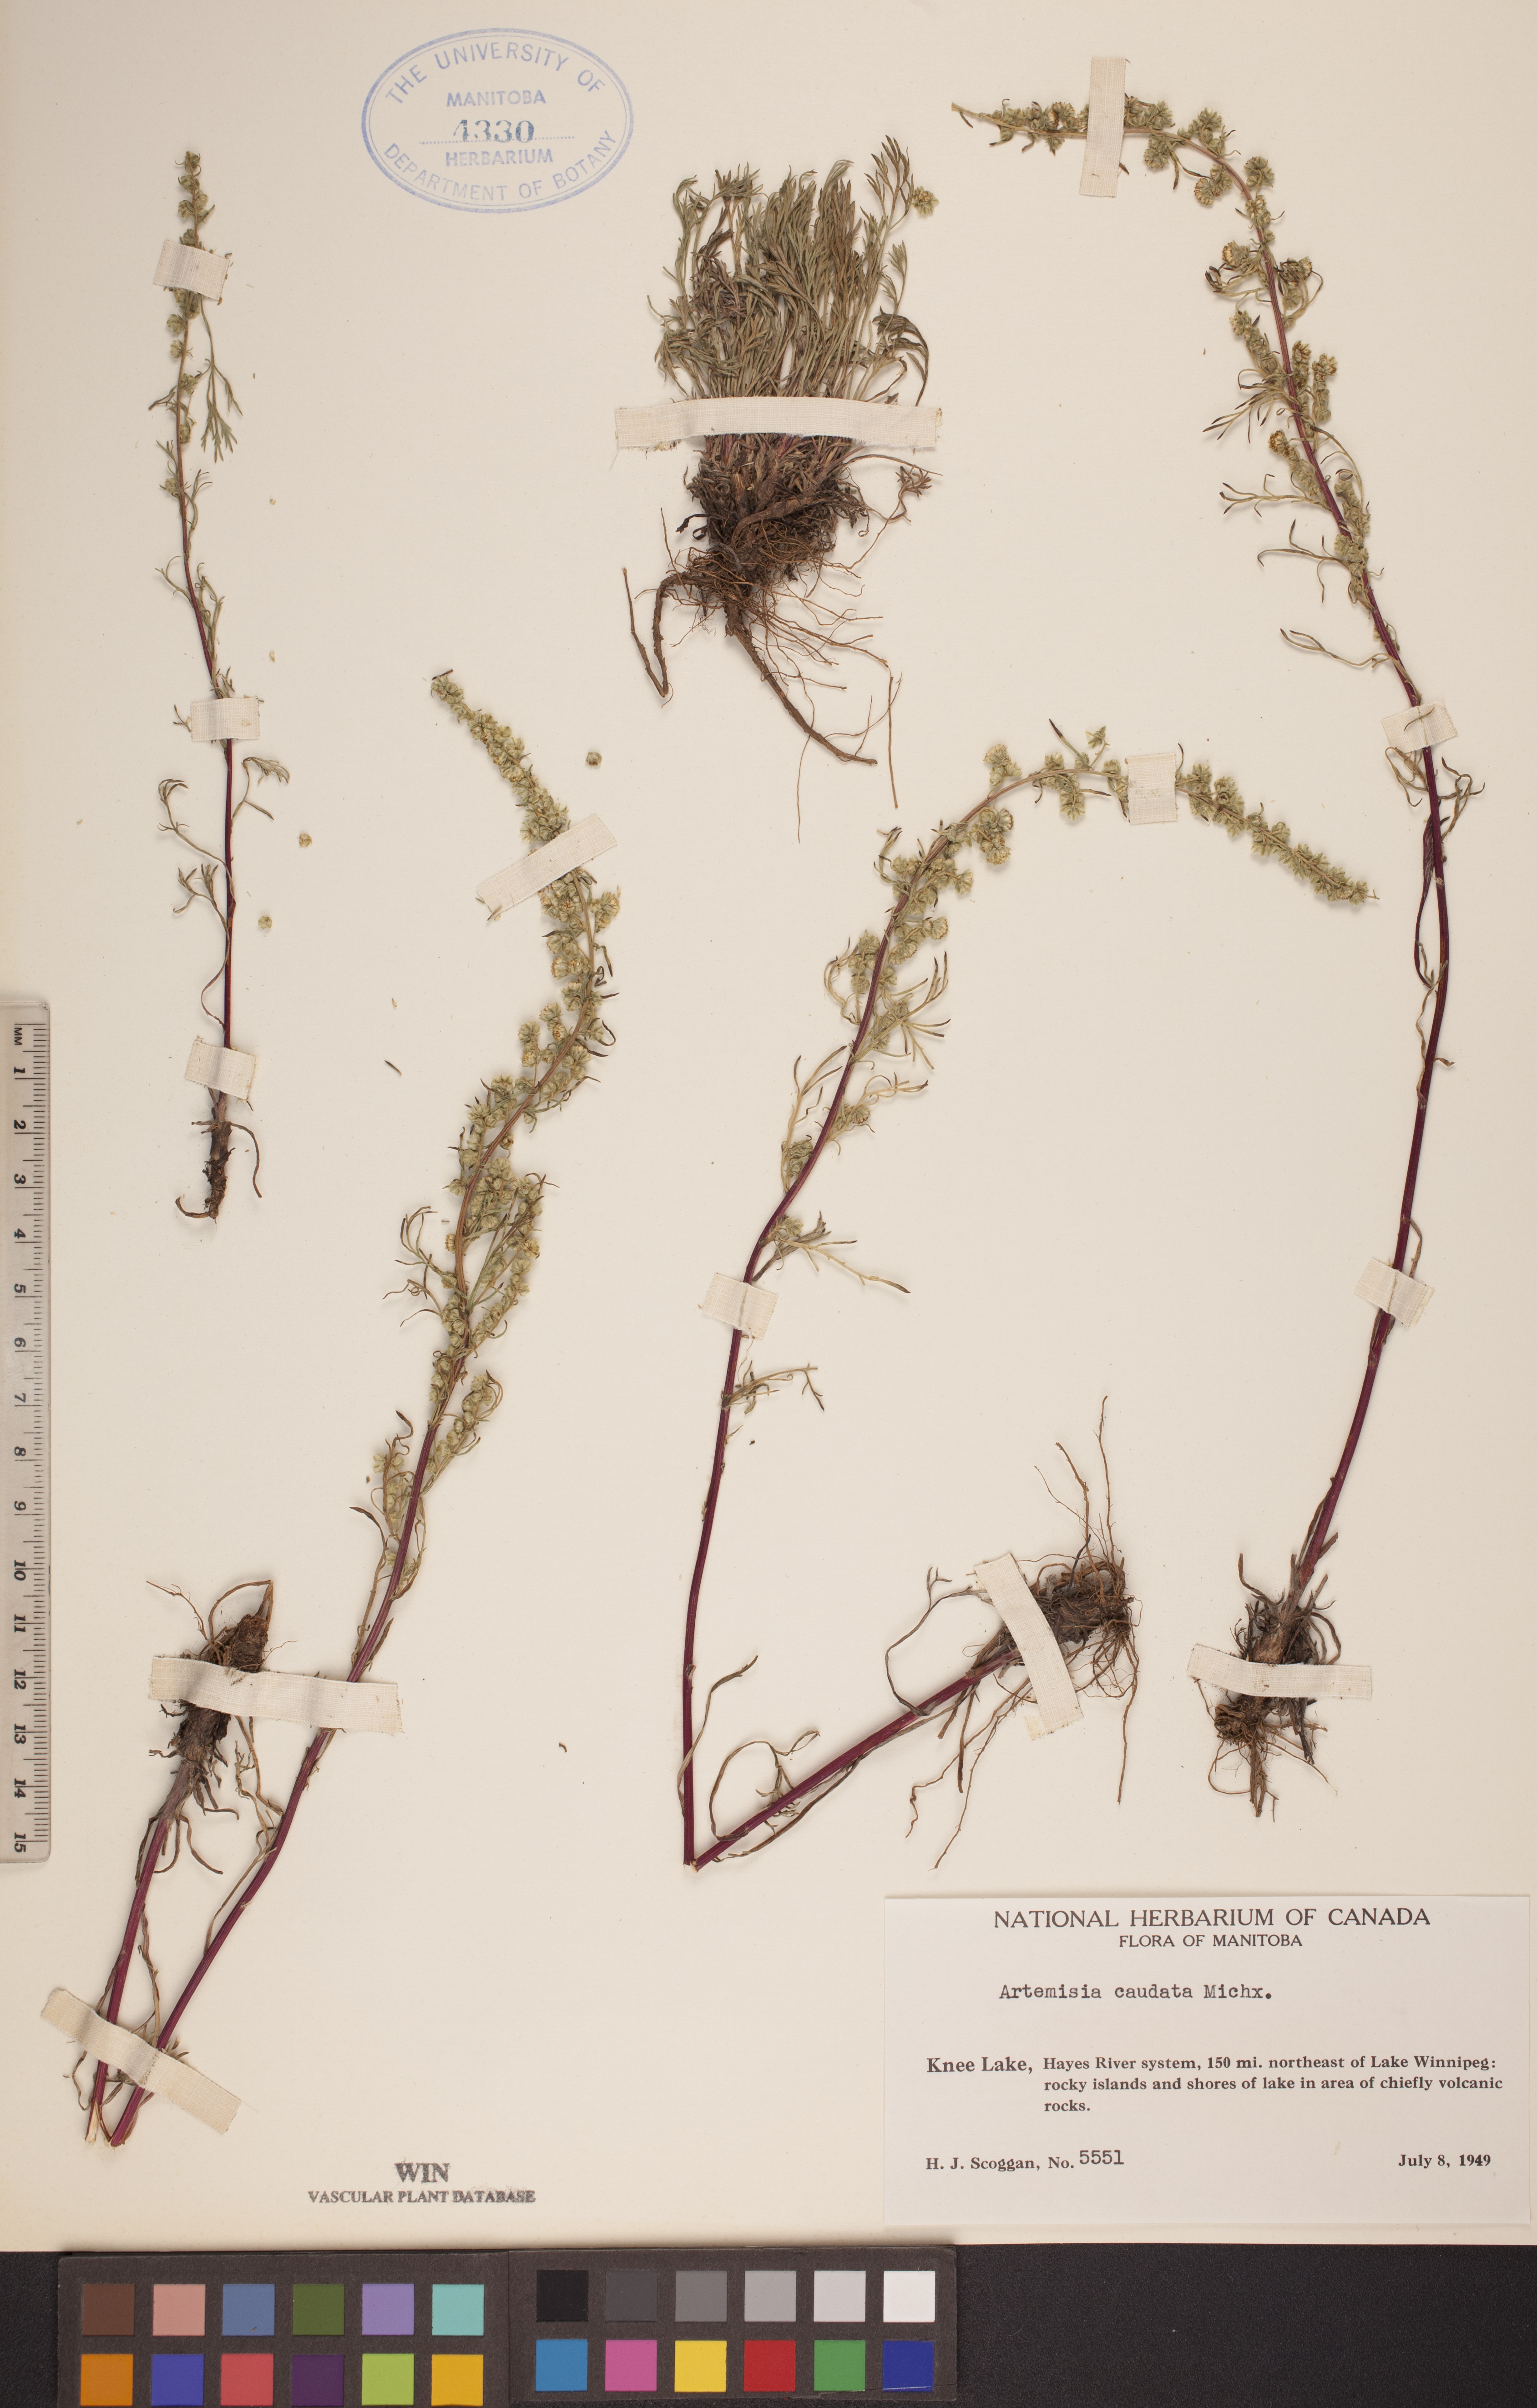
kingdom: Plantae
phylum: Tracheophyta
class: Magnoliopsida
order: Asterales
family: Asteraceae
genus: Artemisia
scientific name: Artemisia campestris
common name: Field wormwood
